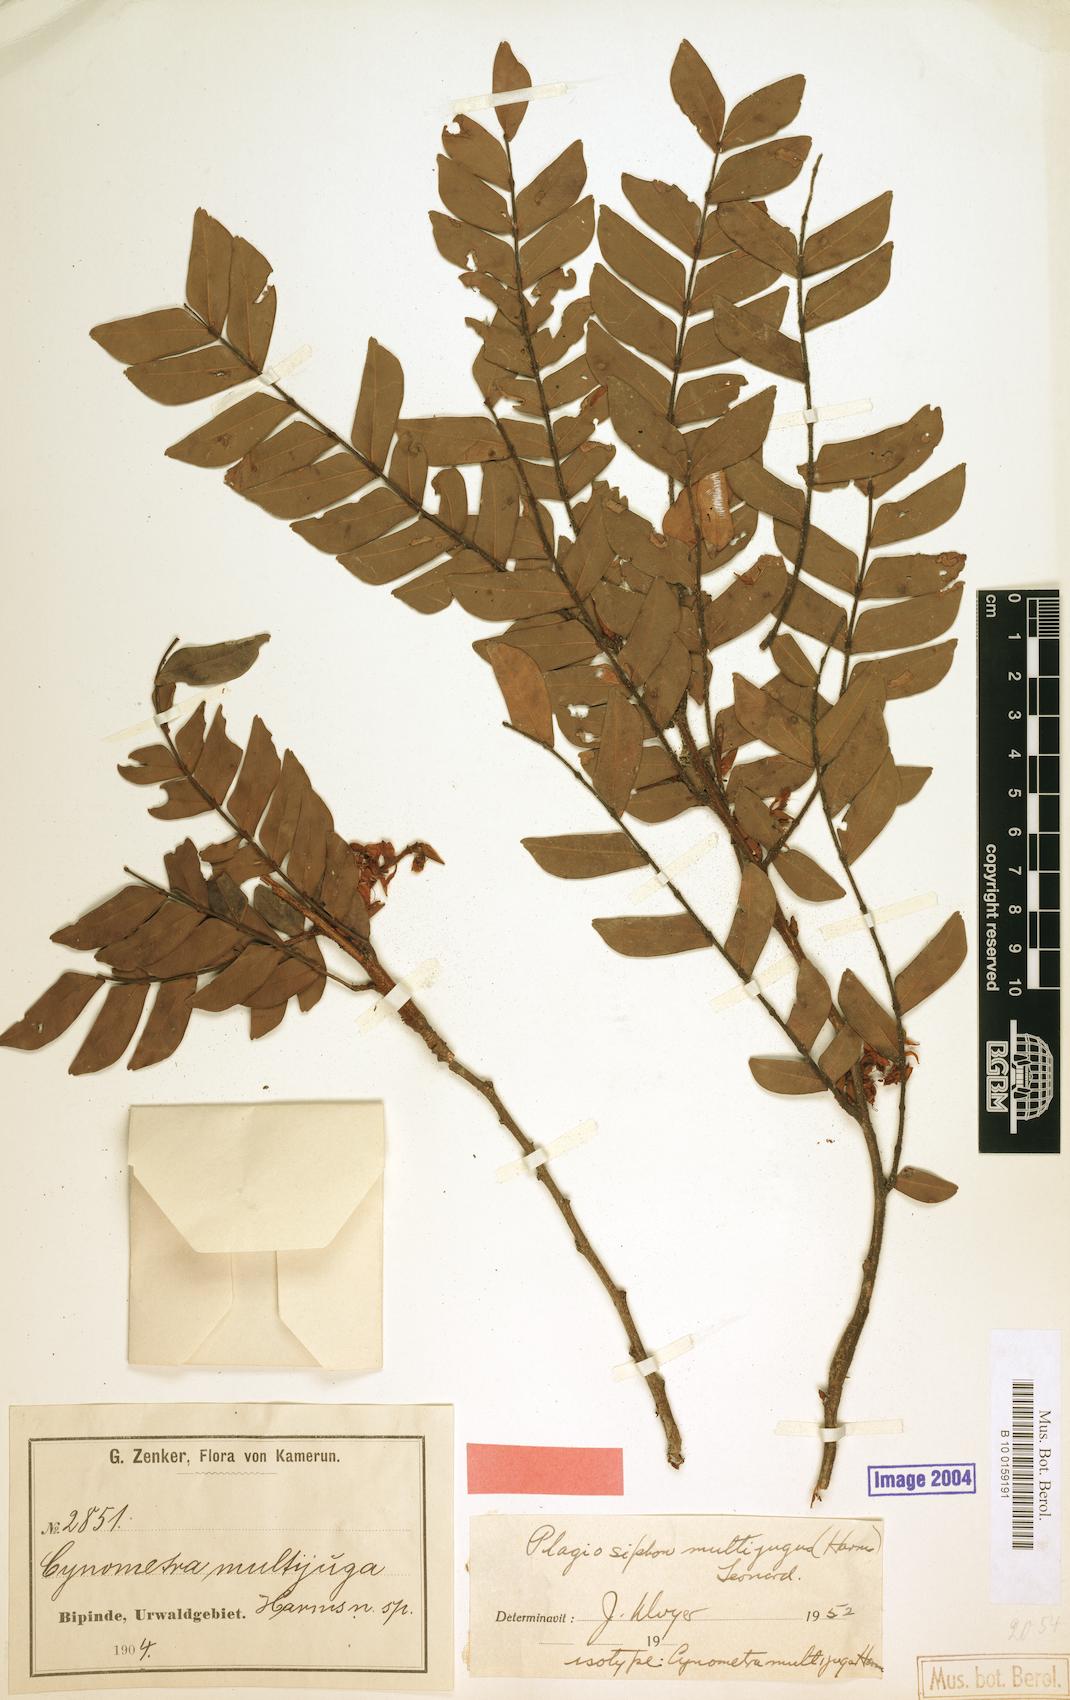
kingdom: Plantae
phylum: Tracheophyta
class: Magnoliopsida
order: Fabales
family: Fabaceae
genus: Plagiosiphon
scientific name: Plagiosiphon multijugus
